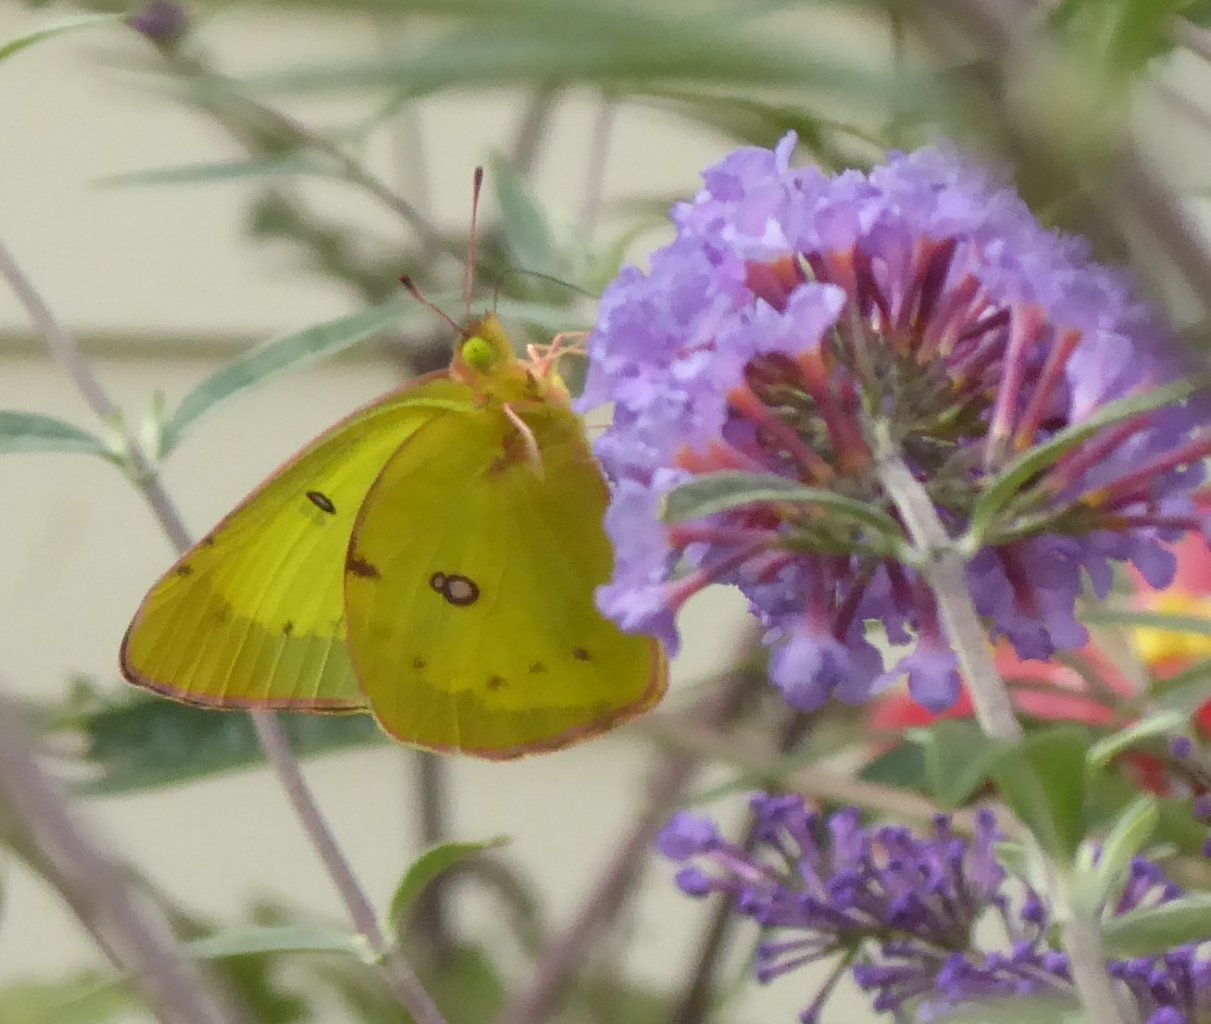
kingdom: Animalia
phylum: Arthropoda
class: Insecta
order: Lepidoptera
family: Pieridae
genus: Colias
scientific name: Colias philodice
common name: Clouded Sulphur
